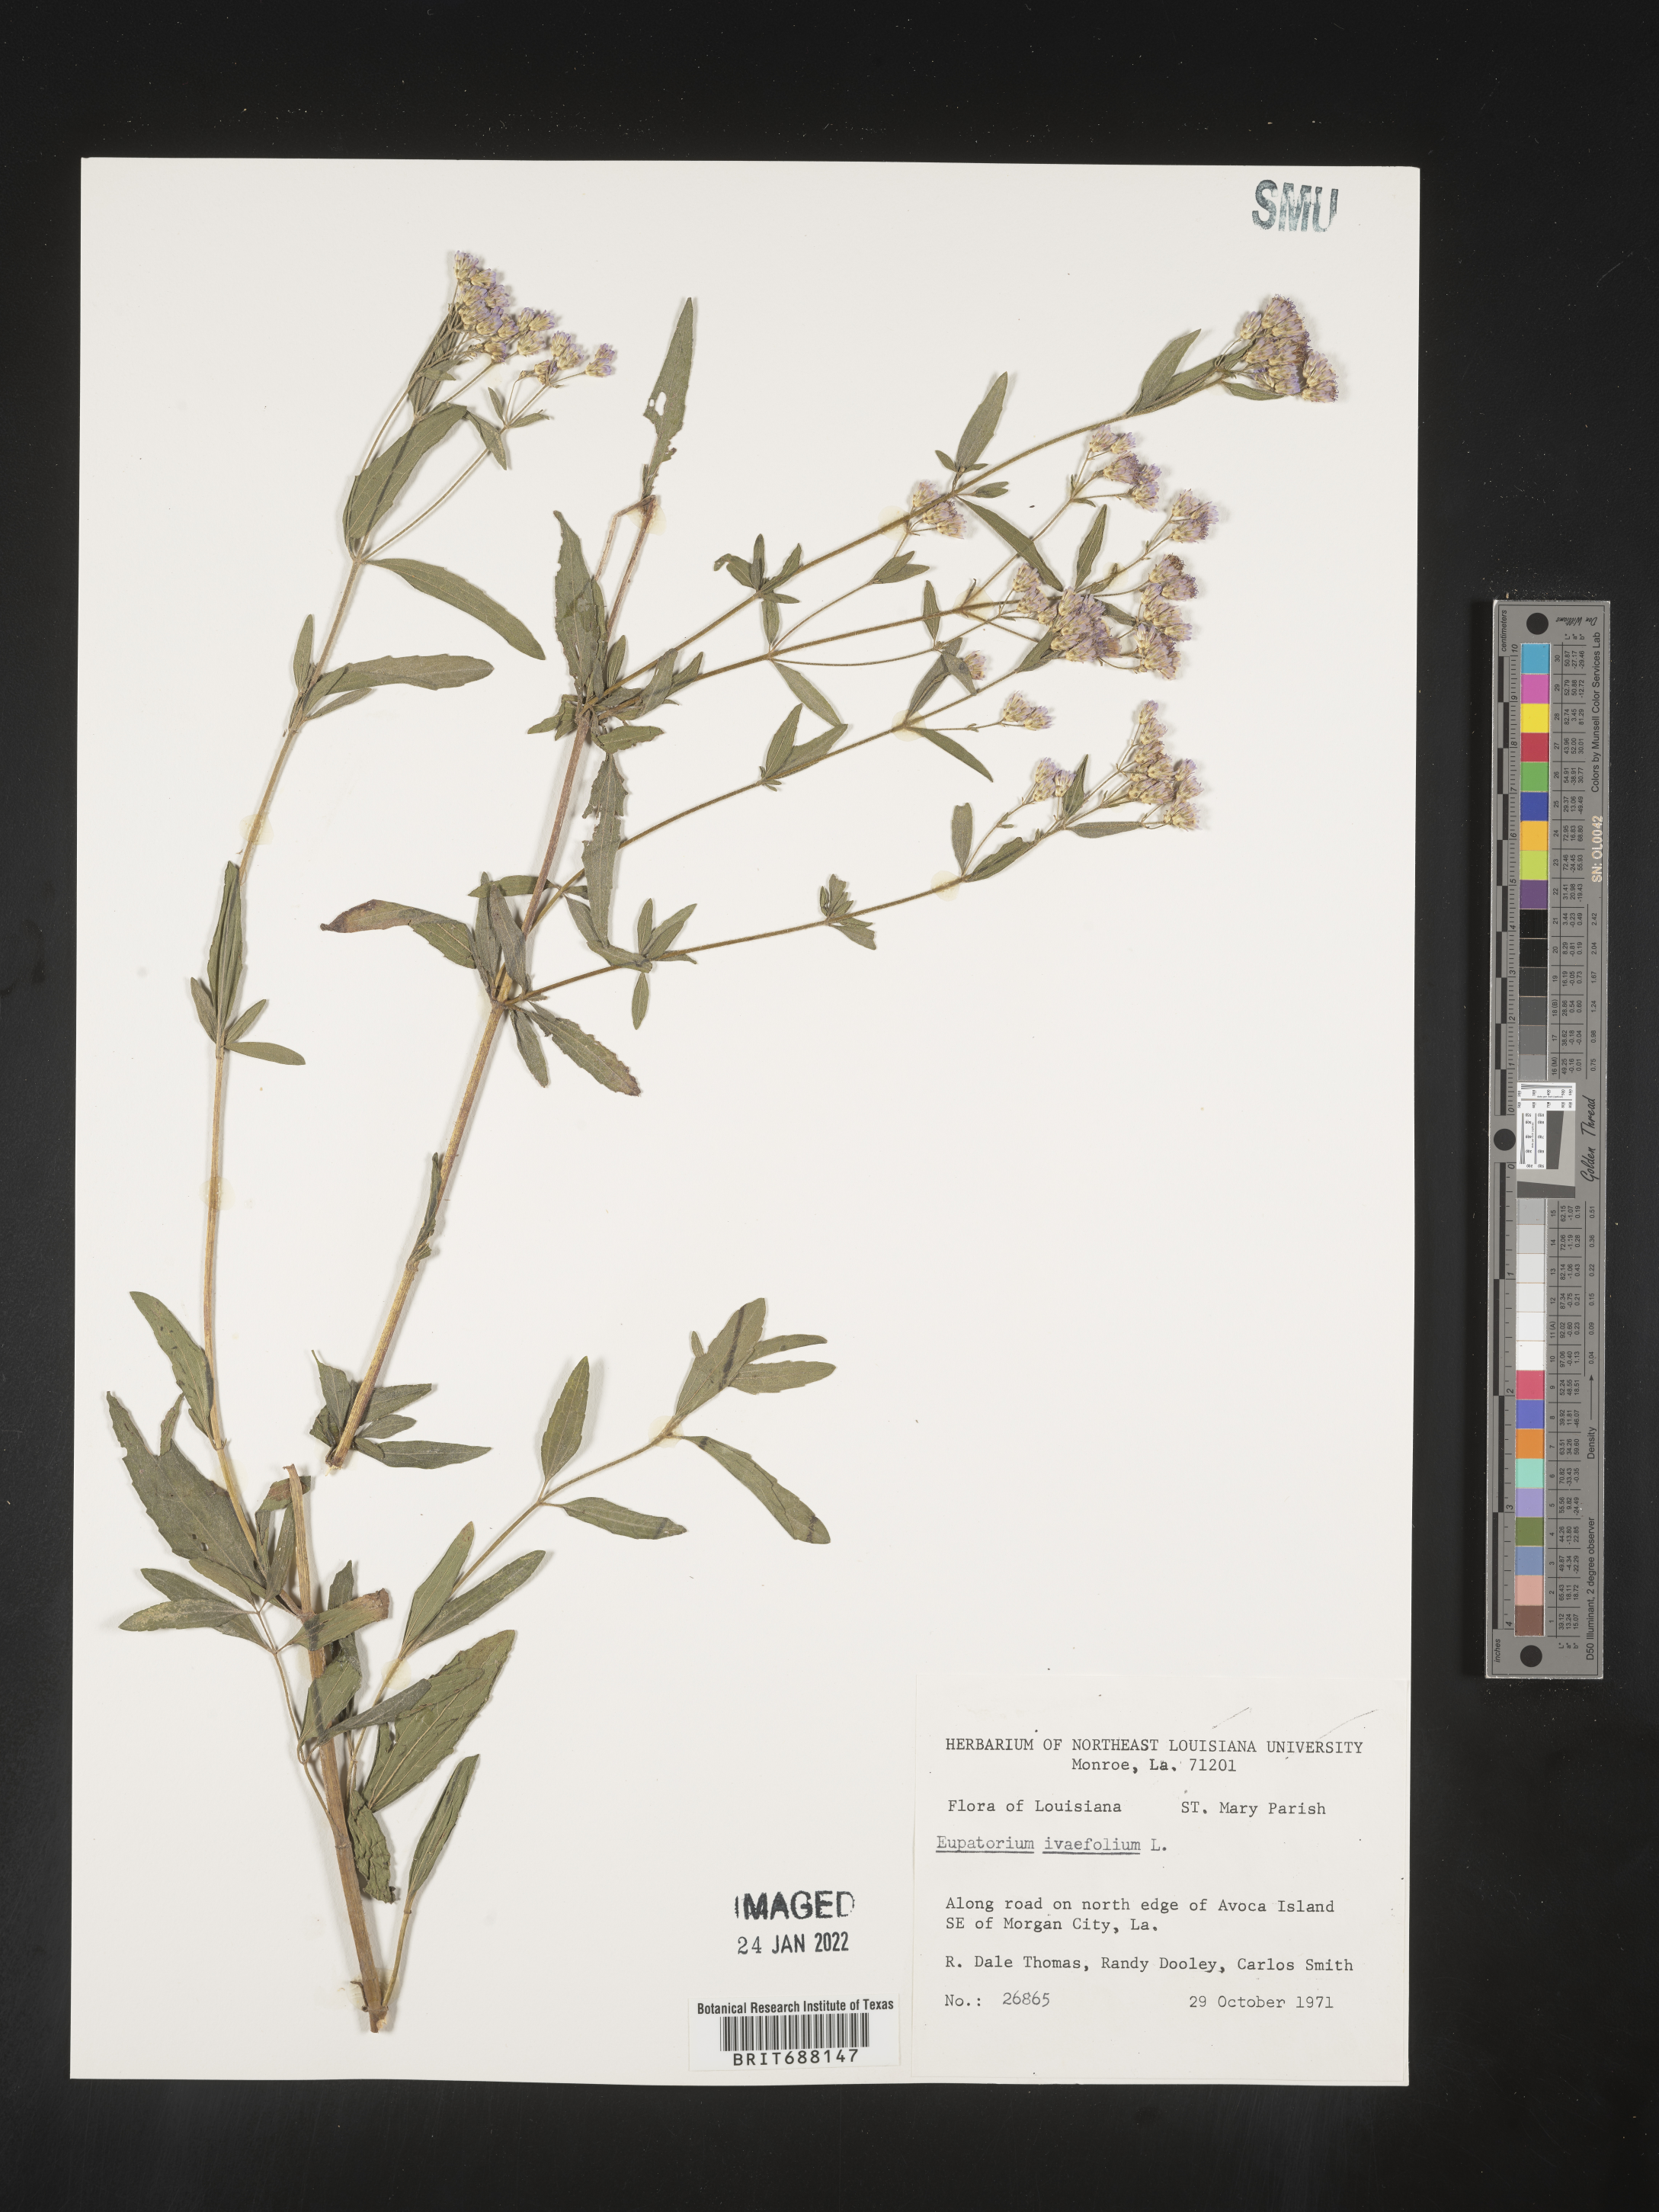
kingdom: Plantae
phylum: Tracheophyta
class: Magnoliopsida
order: Asterales
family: Asteraceae
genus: Chromolaena
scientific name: Chromolaena ivifolia
